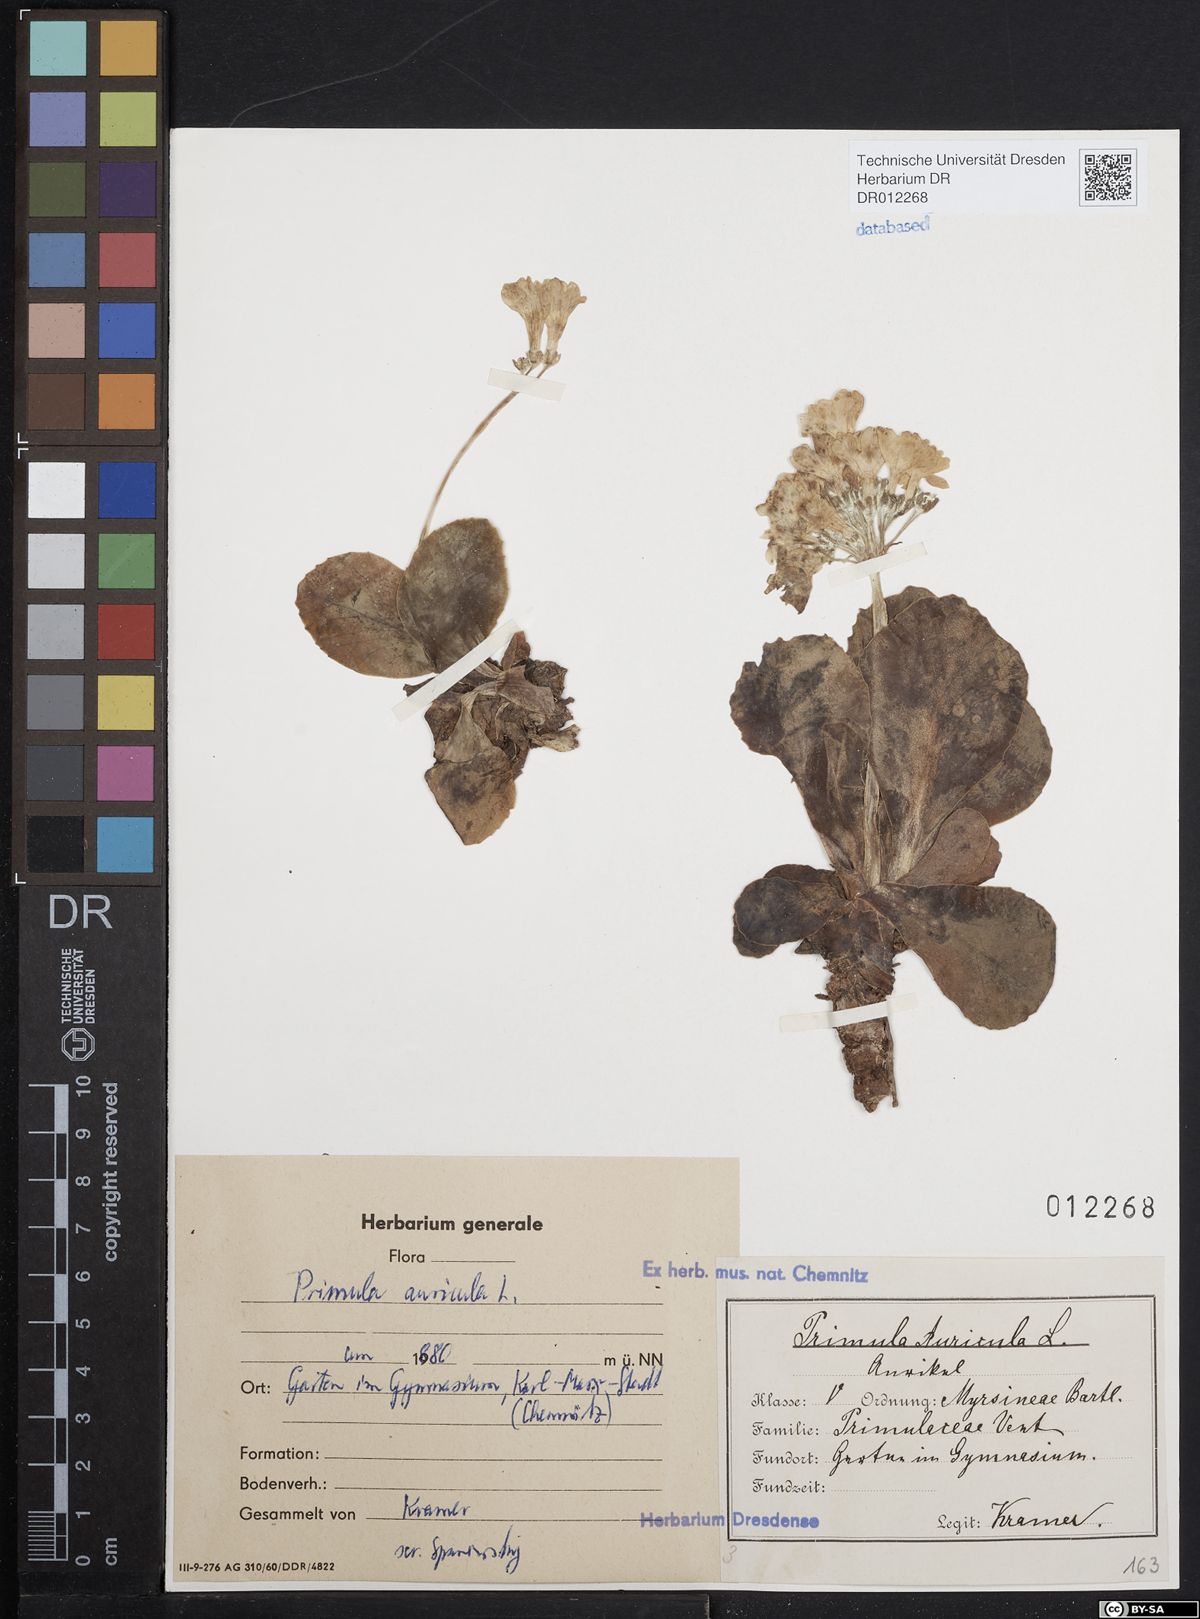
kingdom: Plantae
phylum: Tracheophyta
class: Magnoliopsida
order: Ericales
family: Primulaceae
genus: Primula
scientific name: Primula auricula
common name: Auricula
